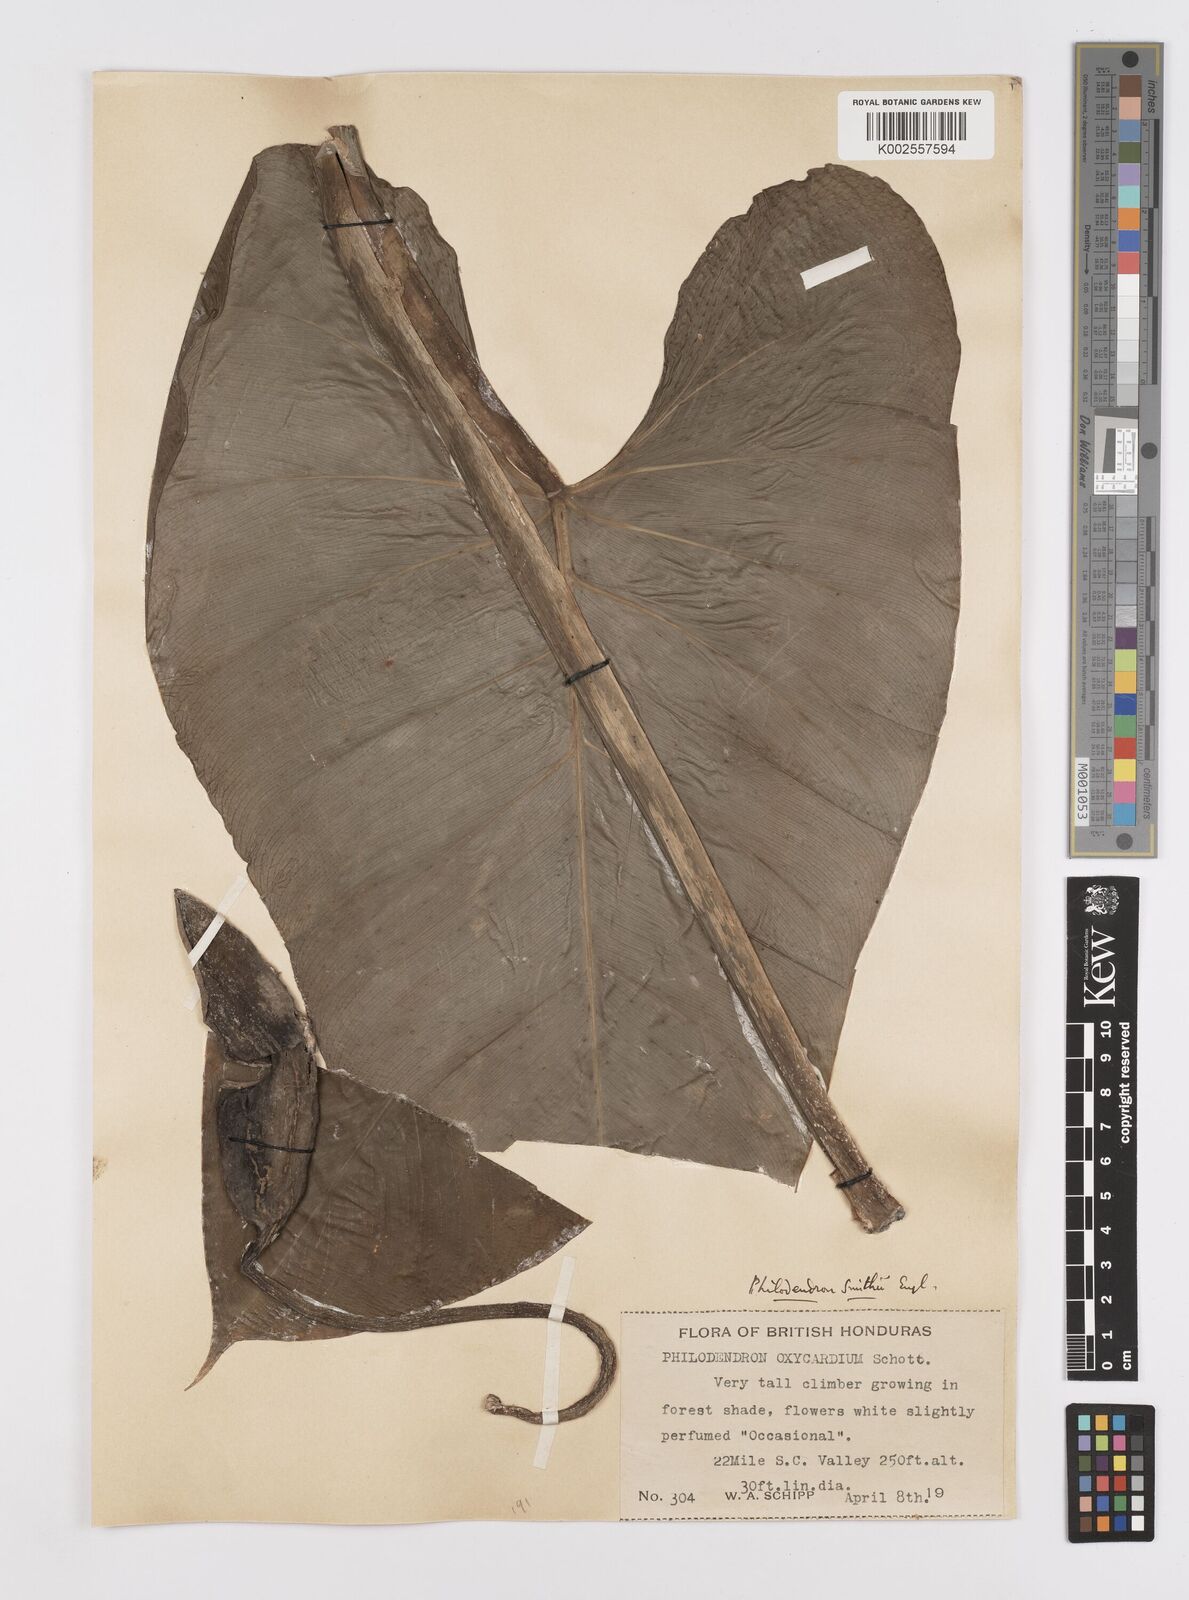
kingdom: Plantae
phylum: Tracheophyta
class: Liliopsida
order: Alismatales
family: Araceae
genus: Philodendron
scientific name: Philodendron smithii
